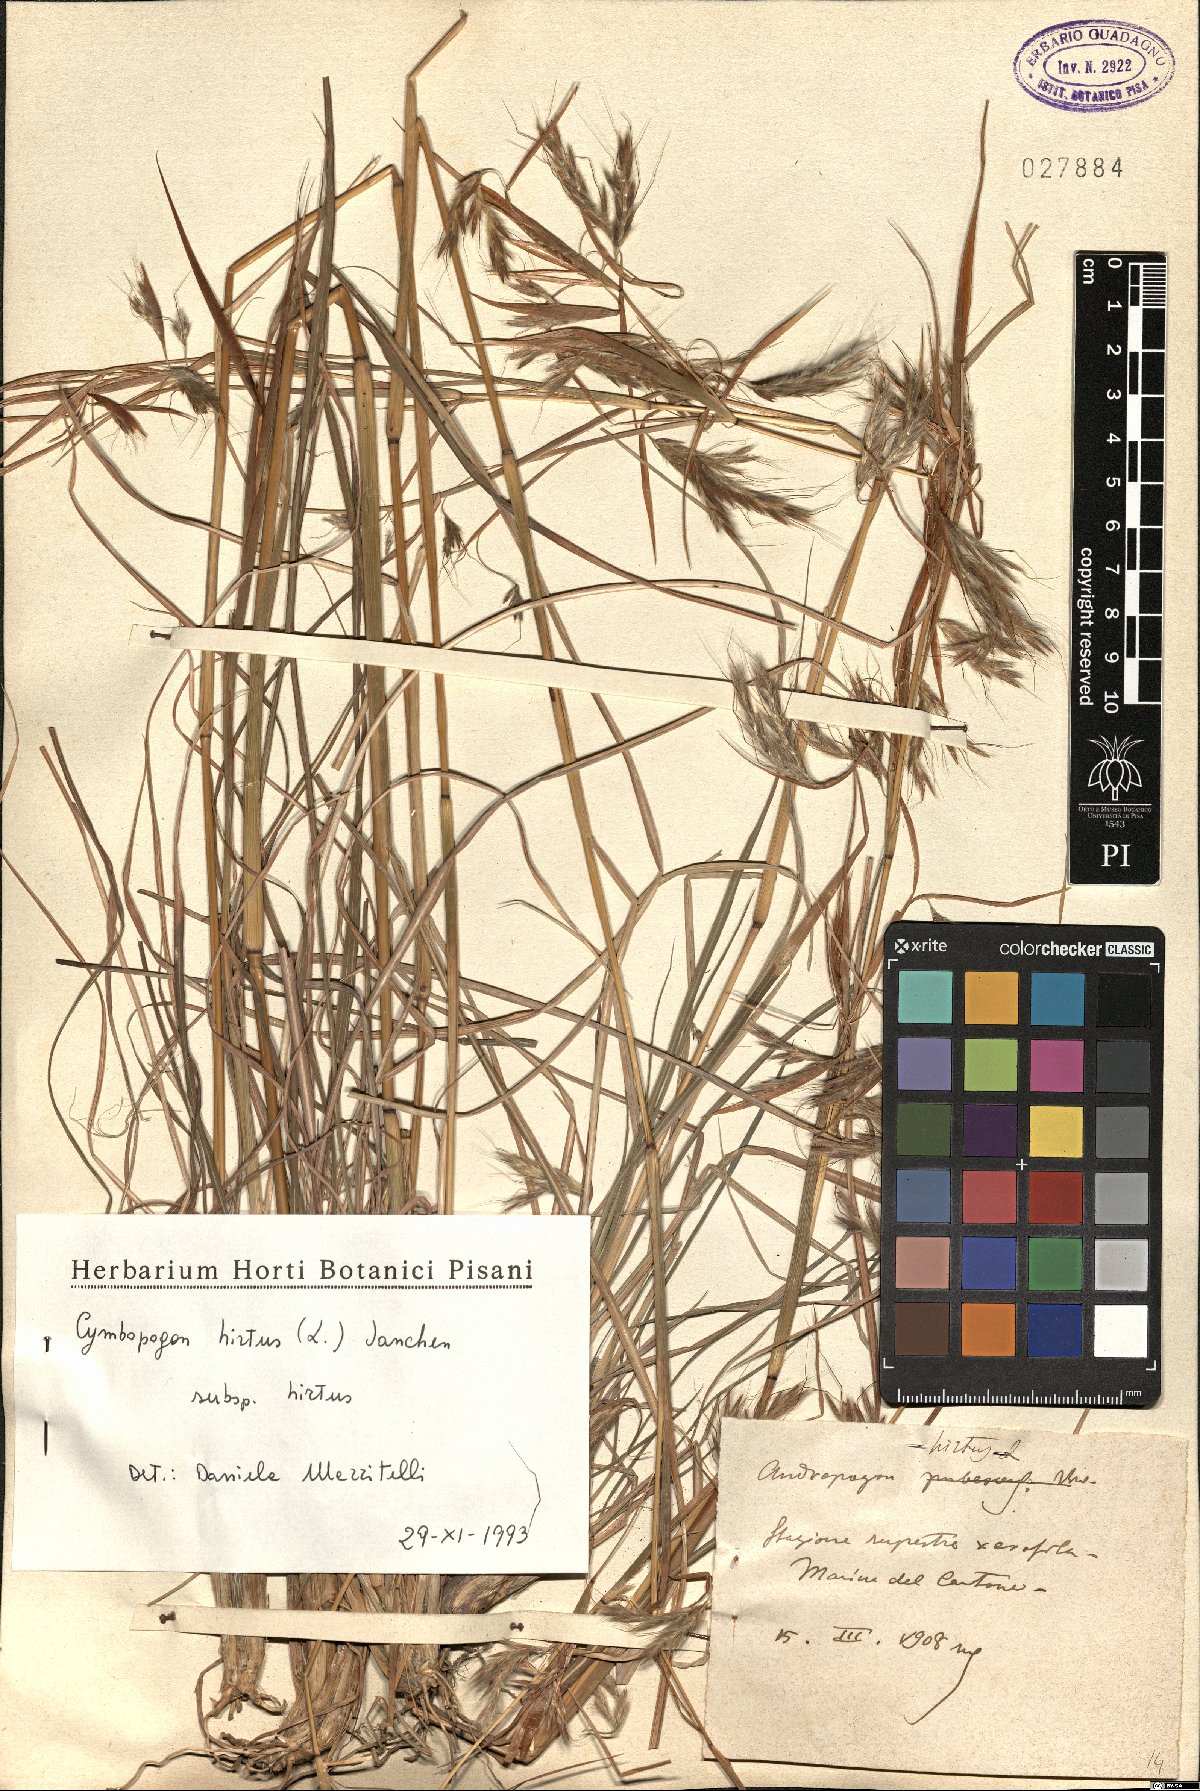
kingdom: Plantae
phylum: Tracheophyta
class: Liliopsida
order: Poales
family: Poaceae
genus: Cymbopogon
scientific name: Cymbopogon hirtus
